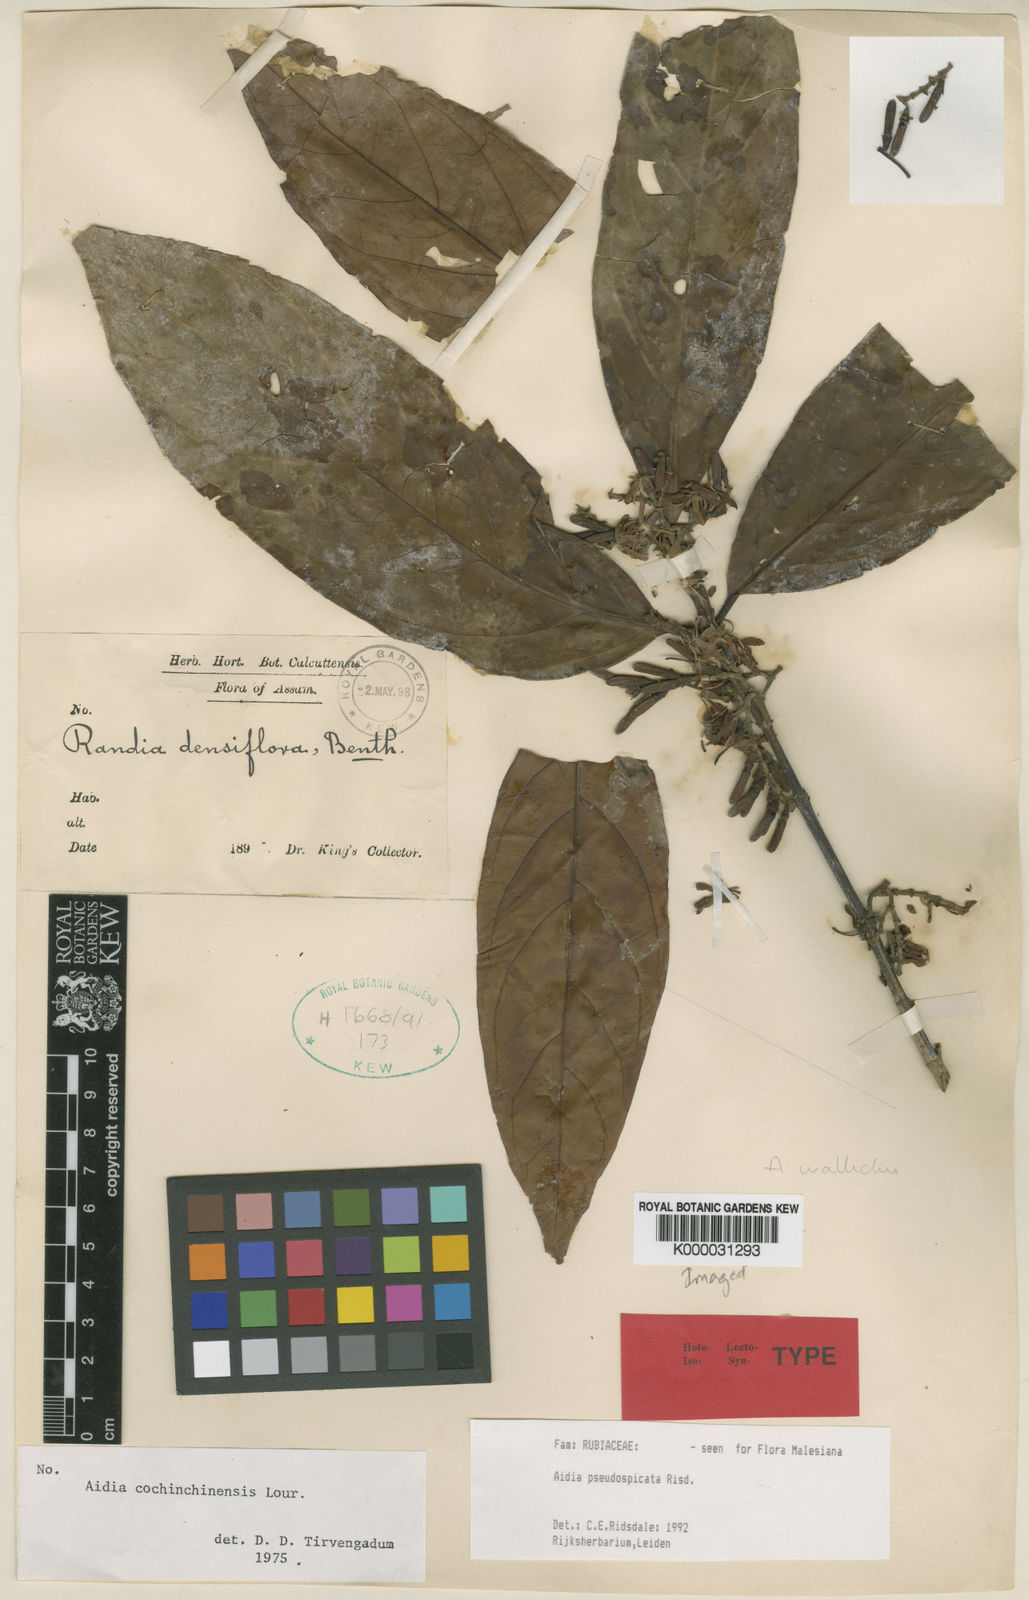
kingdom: Plantae
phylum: Tracheophyta
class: Magnoliopsida
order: Gentianales
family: Rubiaceae
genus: Aidia
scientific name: Aidia
